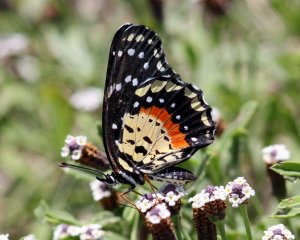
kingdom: Animalia
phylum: Arthropoda
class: Insecta
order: Lepidoptera
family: Nymphalidae
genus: Chlosyne
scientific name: Chlosyne janais
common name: Crimson Patch
